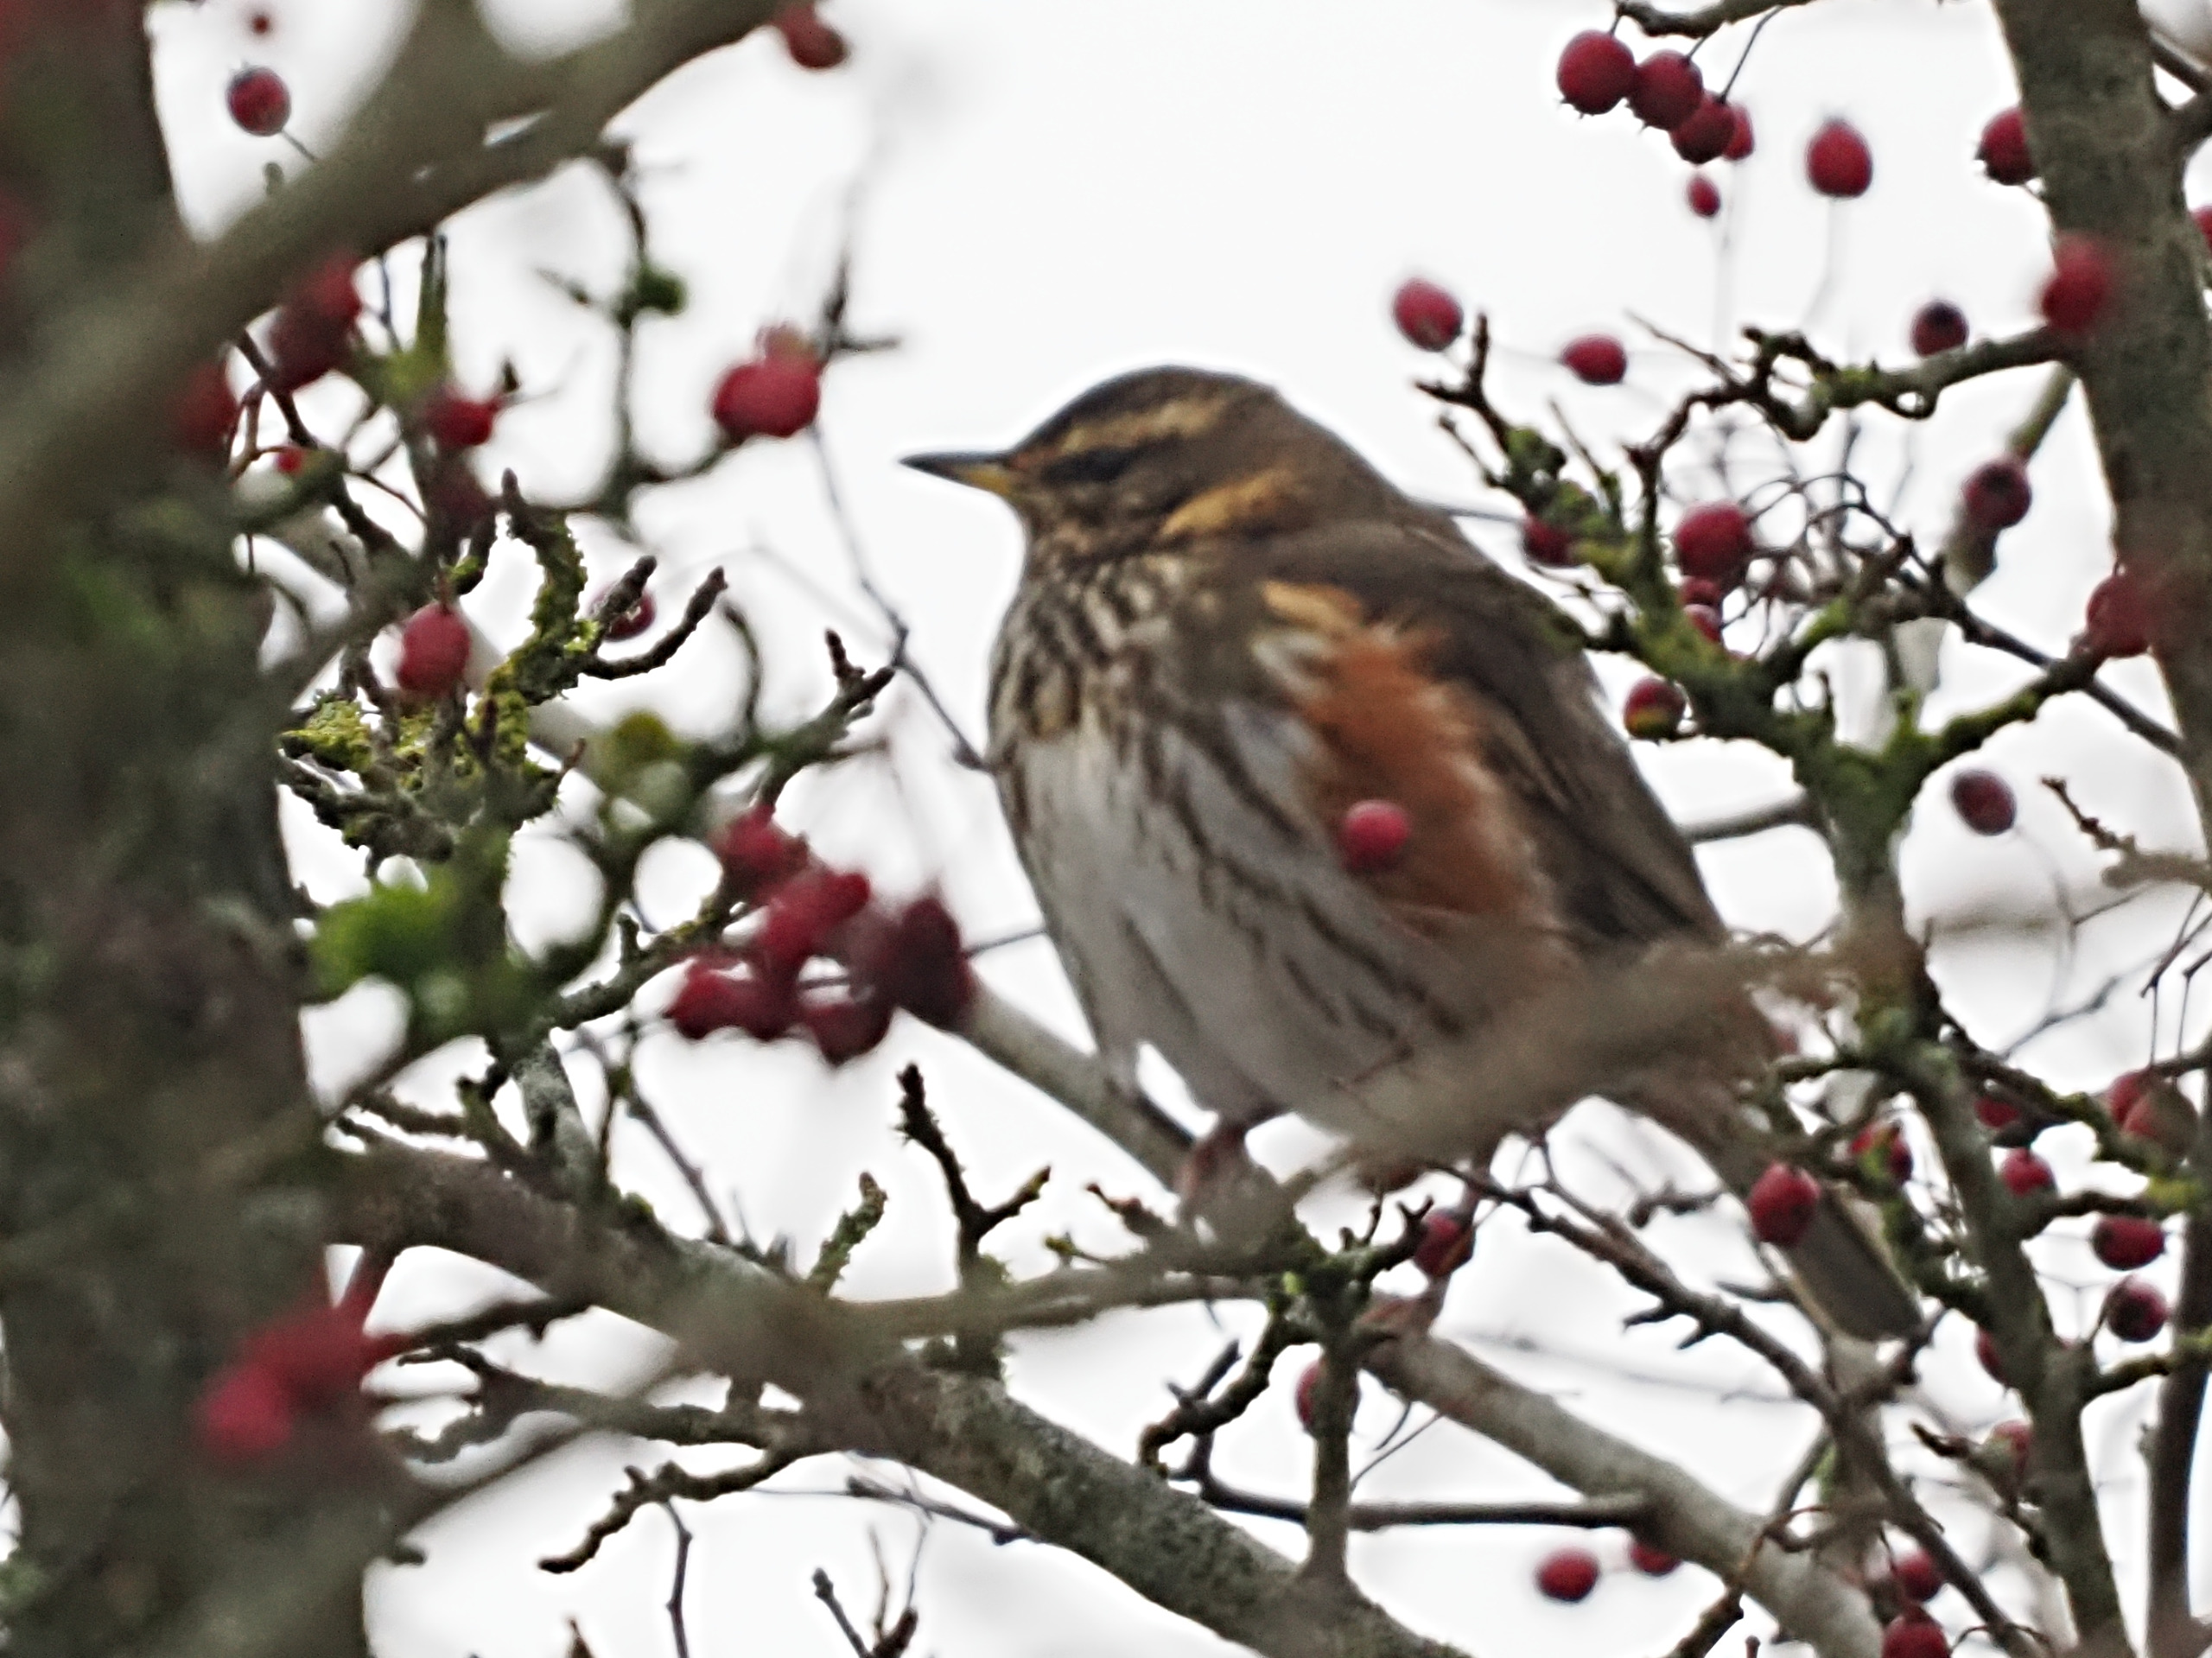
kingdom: Animalia
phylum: Chordata
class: Aves
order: Passeriformes
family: Turdidae
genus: Turdus
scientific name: Turdus iliacus
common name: Vindrossel
